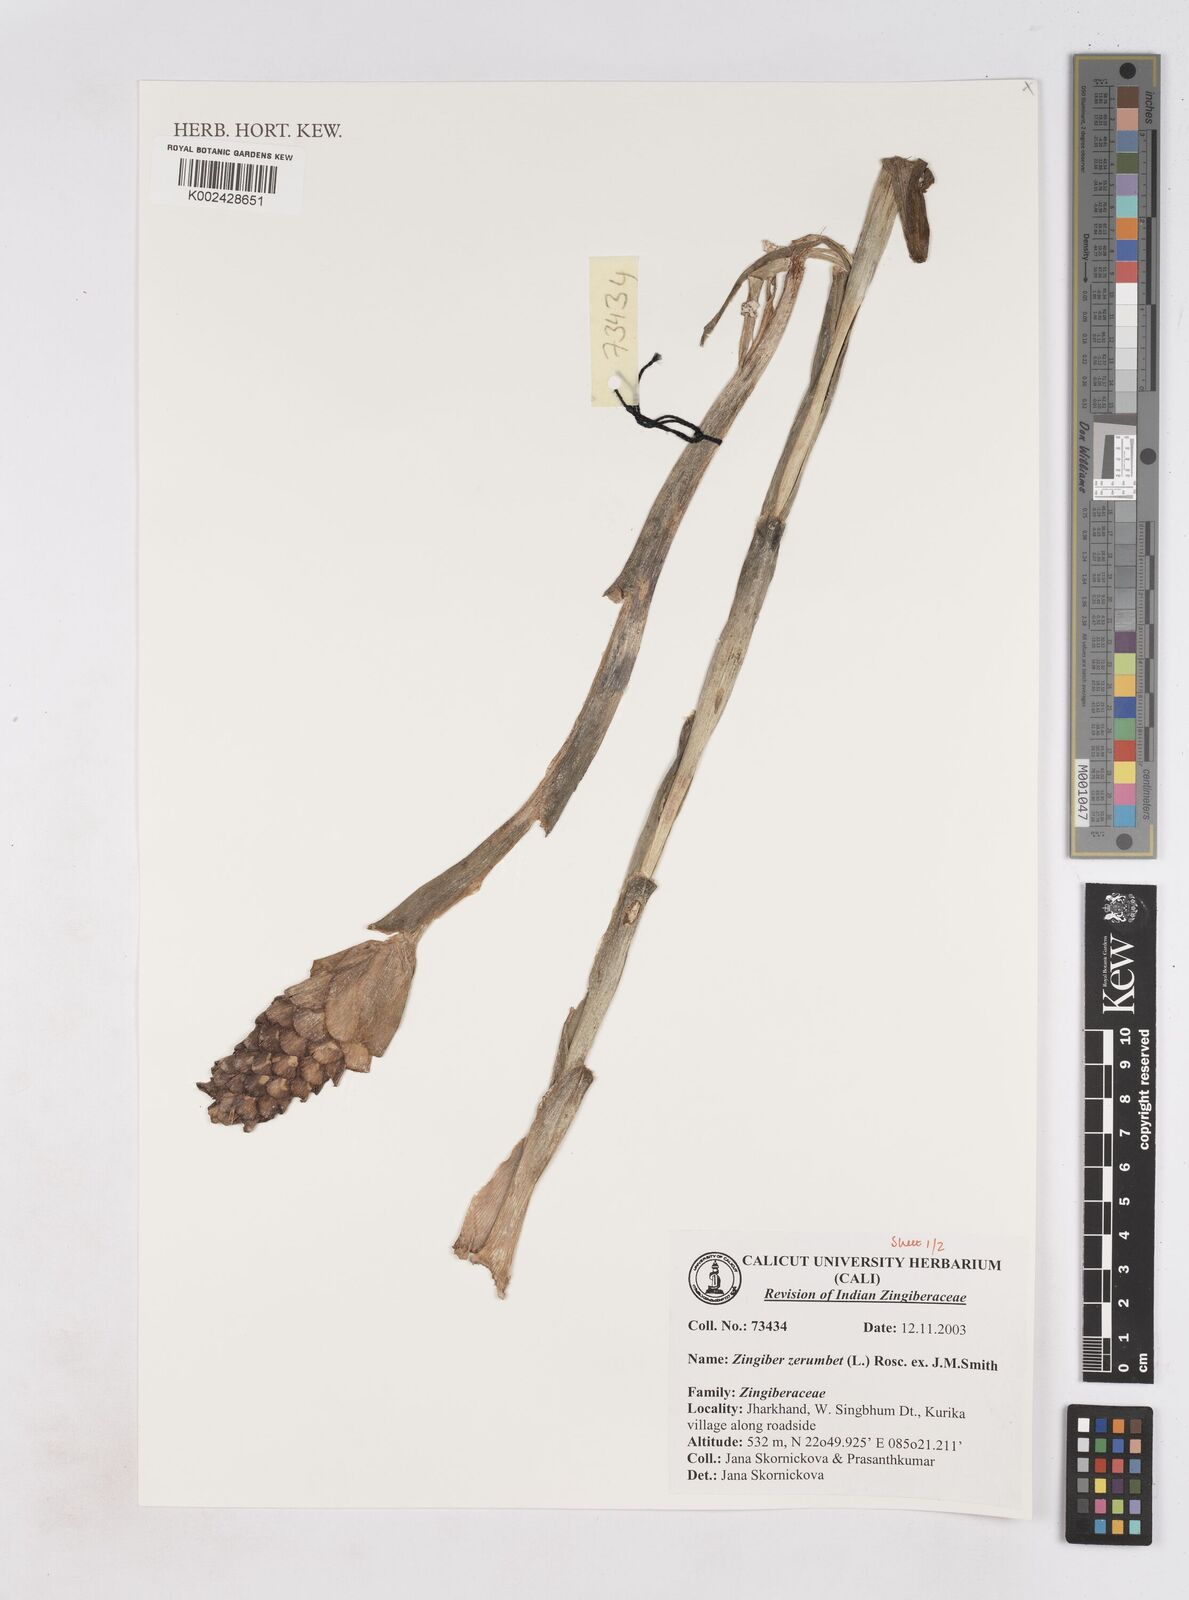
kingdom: Plantae
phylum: Tracheophyta
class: Liliopsida
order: Zingiberales
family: Zingiberaceae
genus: Zingiber
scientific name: Zingiber zerumbet
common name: Bitter ginger
